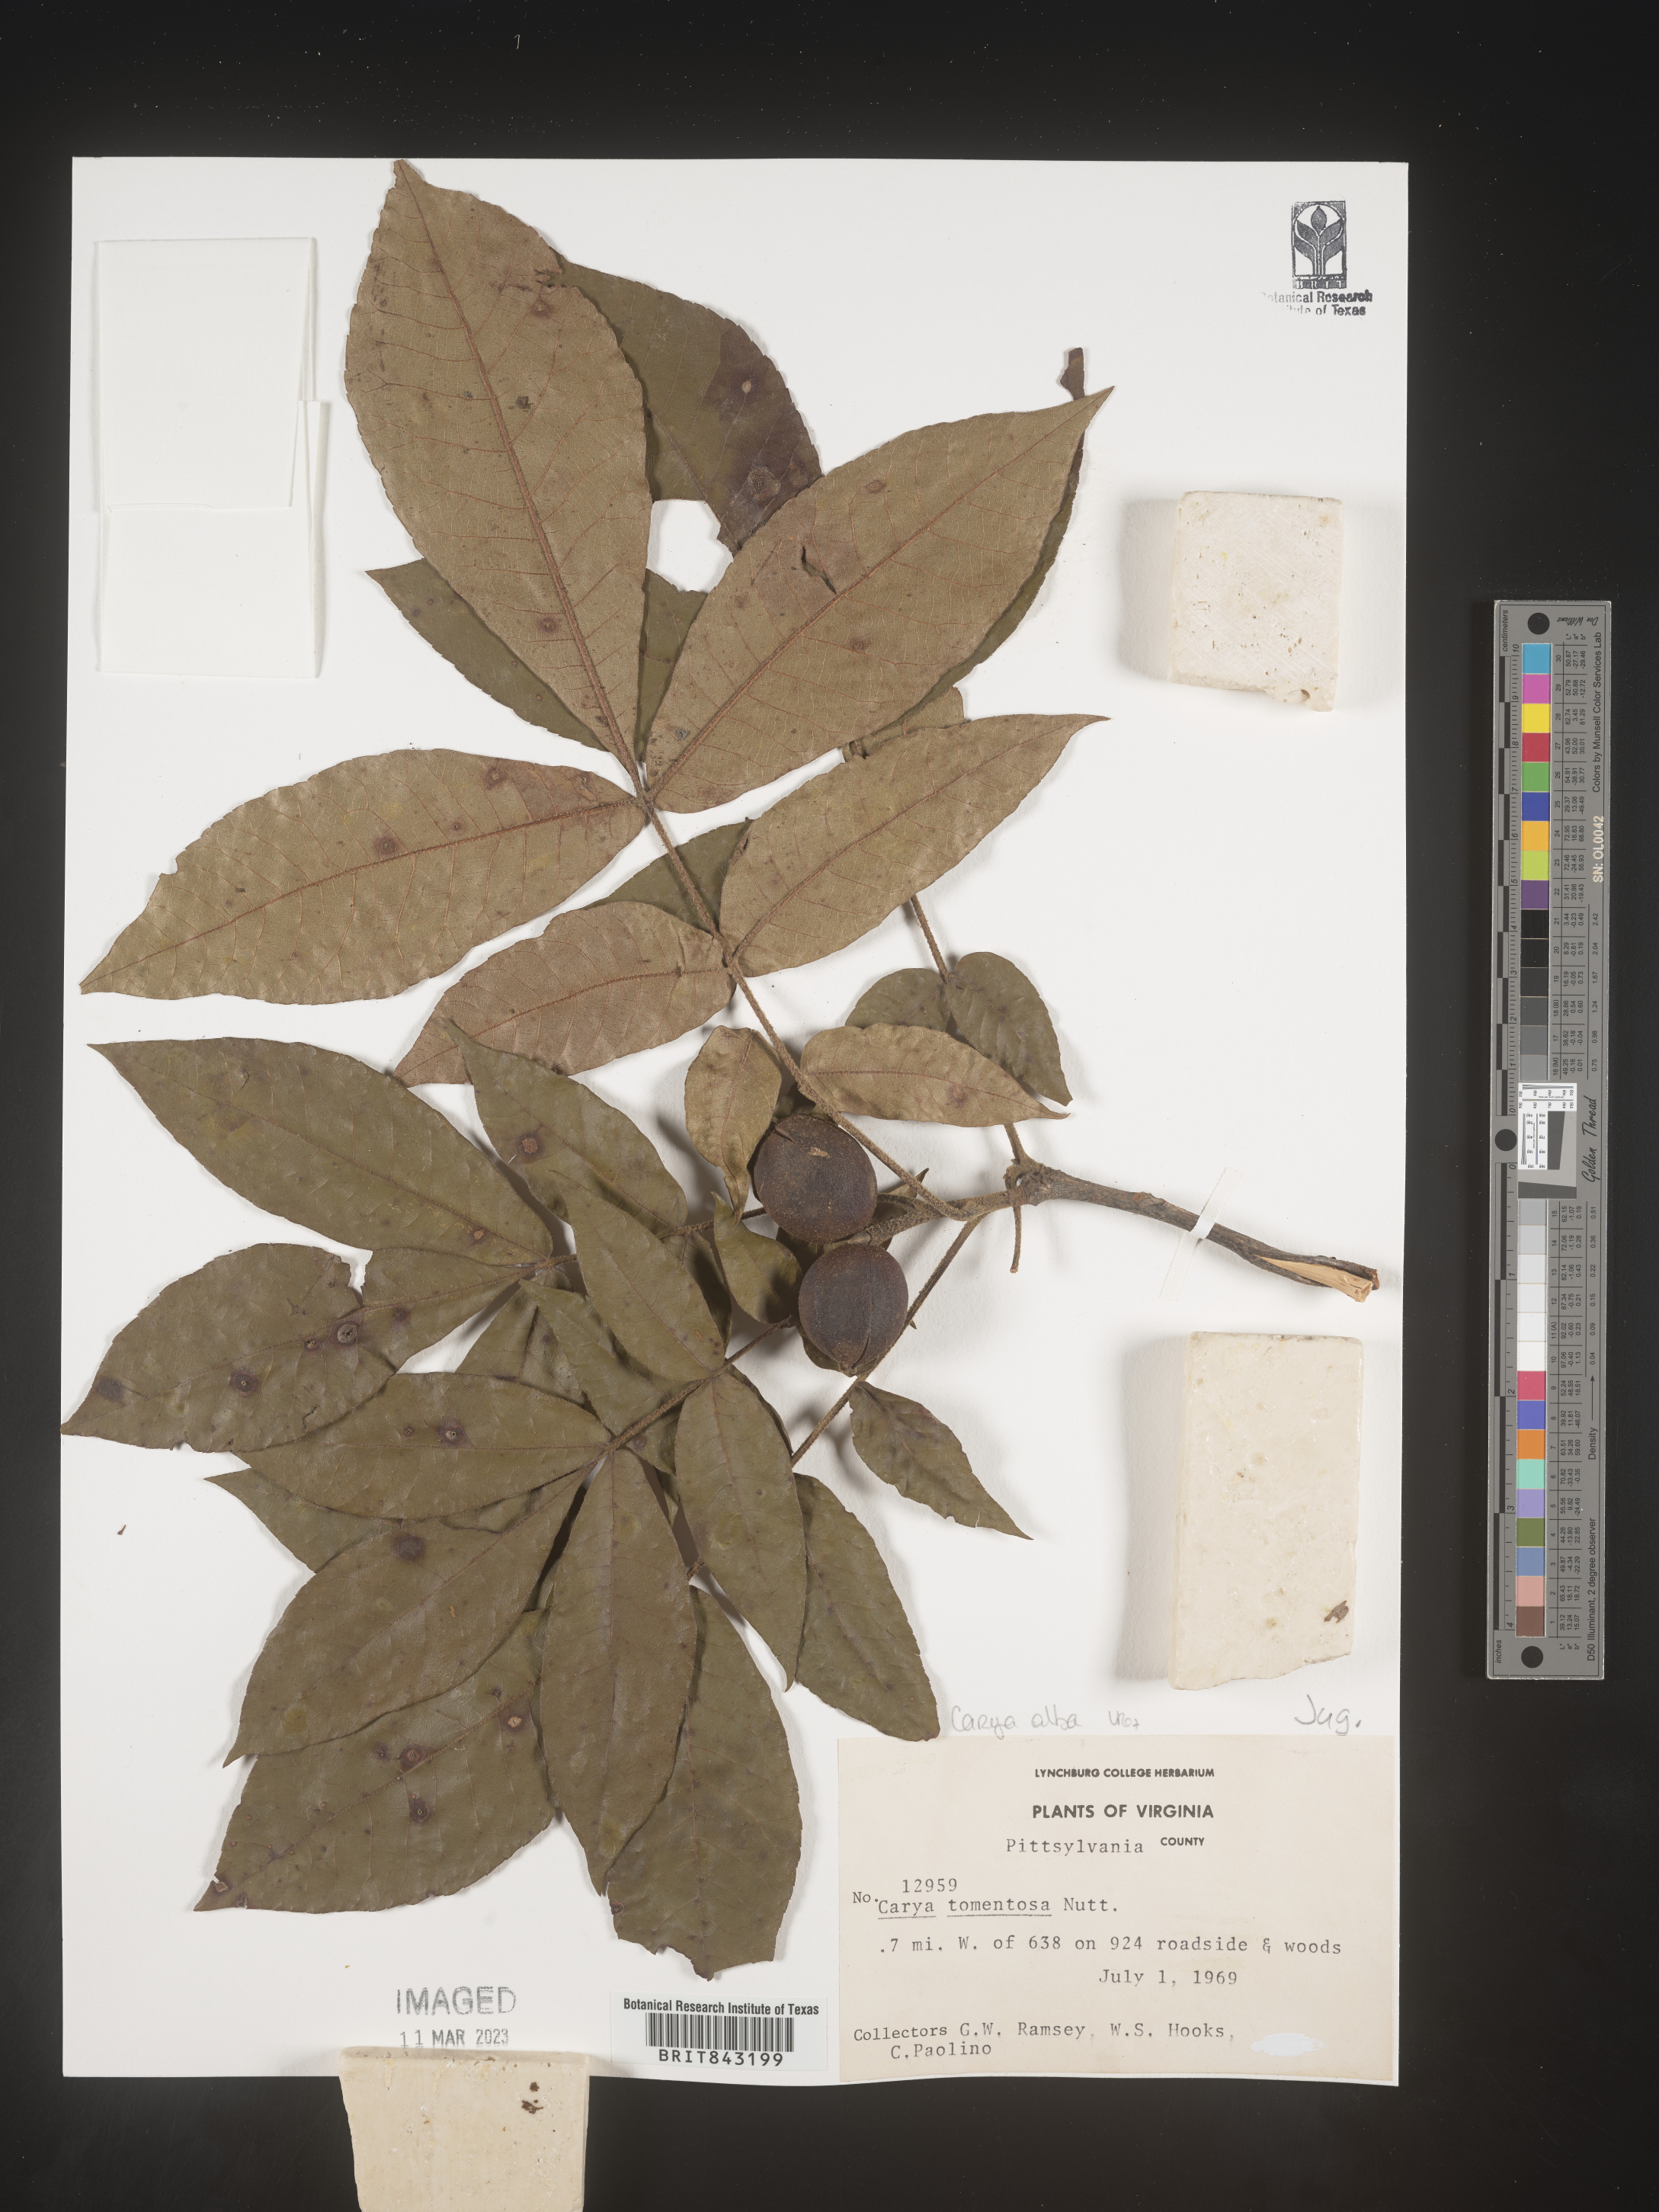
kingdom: Plantae
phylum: Tracheophyta
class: Magnoliopsida
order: Fagales
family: Juglandaceae
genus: Carya
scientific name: Carya alba
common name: Mockernut hickory
